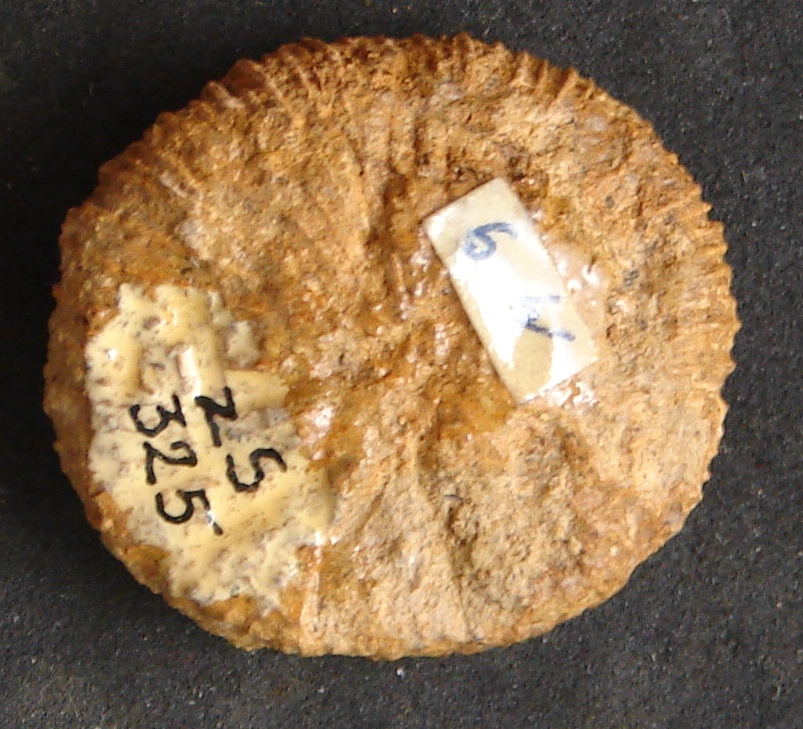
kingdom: Animalia
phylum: Cnidaria
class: Anthozoa
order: Scleractinia
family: Thecosmiliidae
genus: Montlivaltia
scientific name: Montlivaltia
